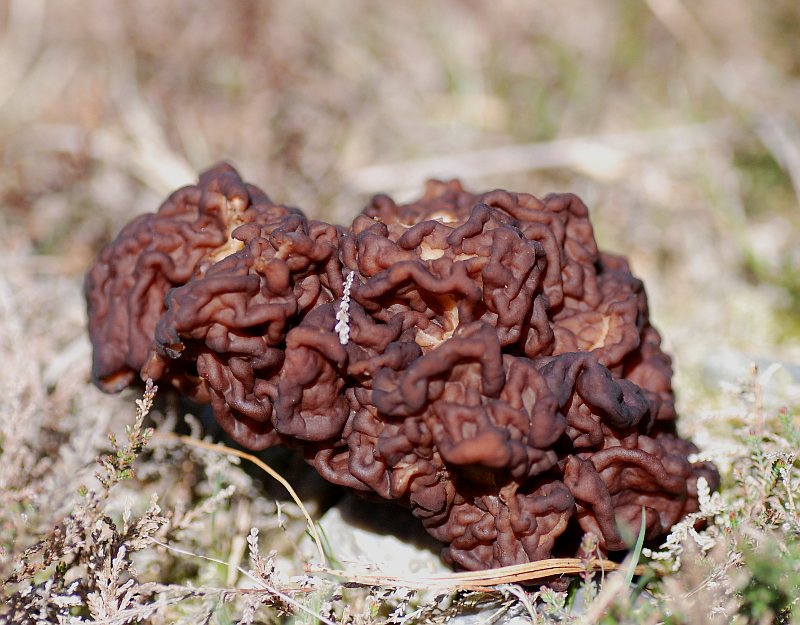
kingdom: Fungi
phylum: Ascomycota
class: Pezizomycetes
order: Pezizales
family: Discinaceae
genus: Gyromitra
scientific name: Gyromitra esculenta
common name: ægte stenmorkel
